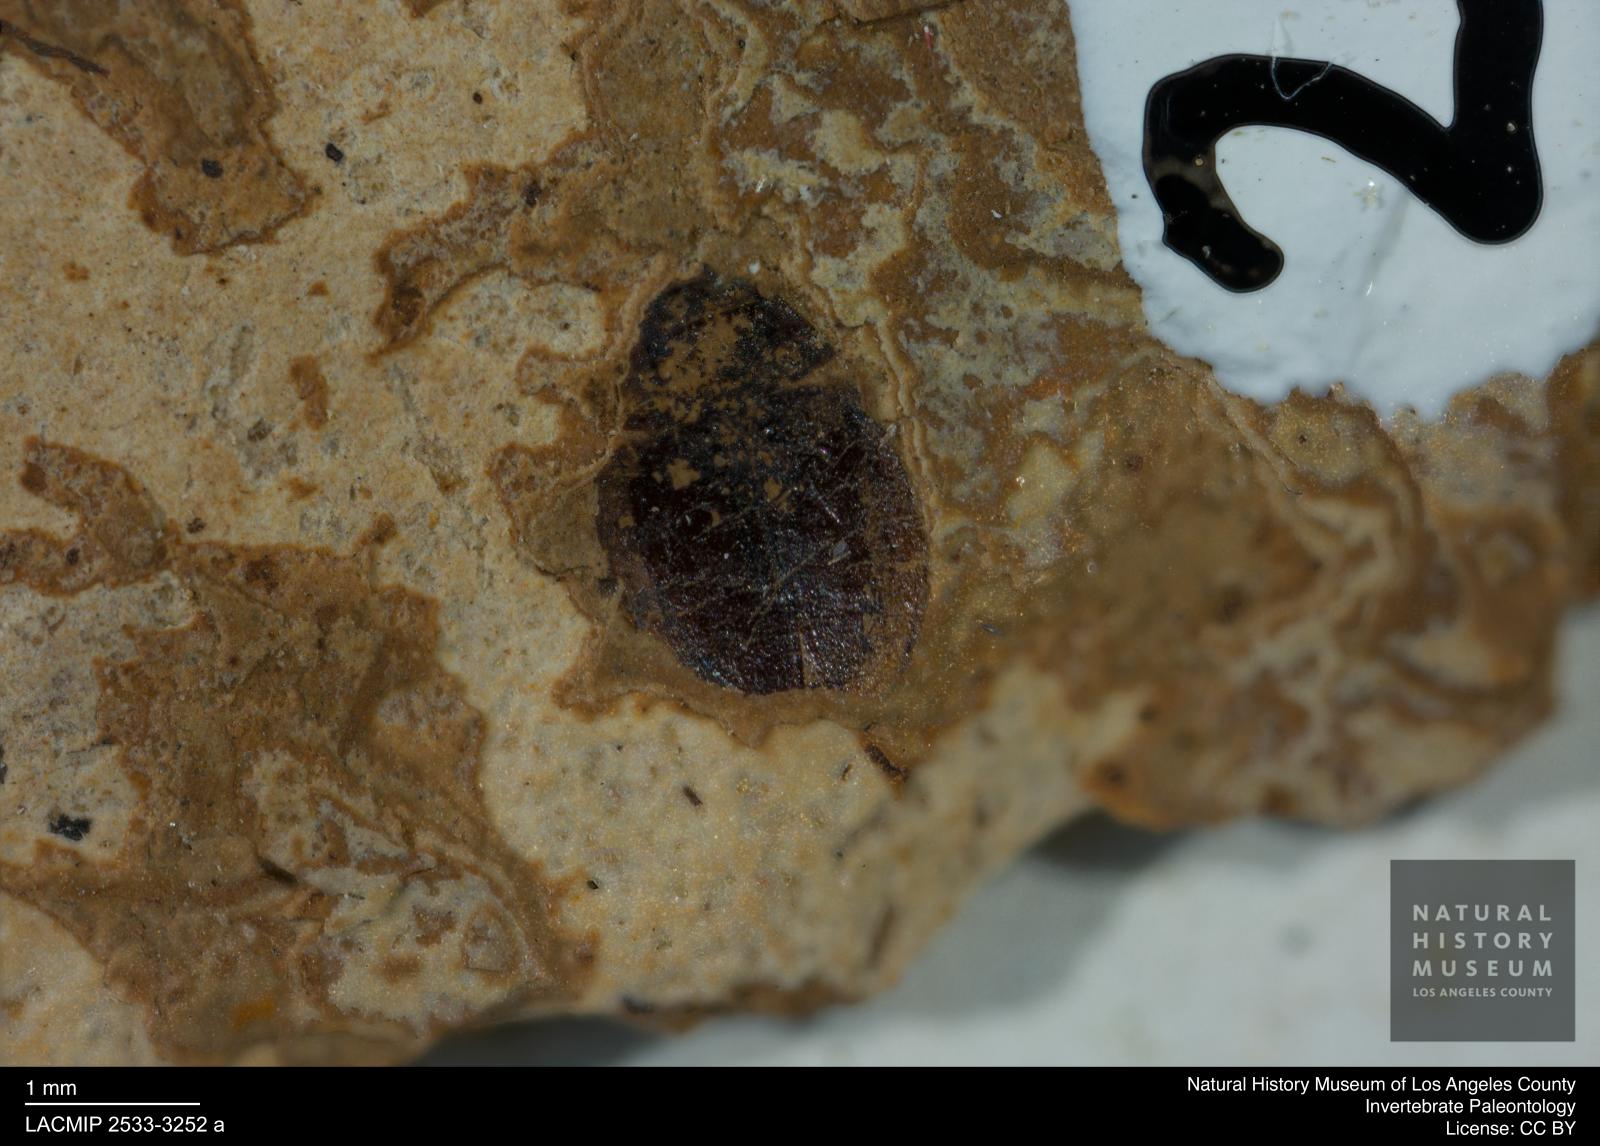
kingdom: Animalia
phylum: Arthropoda
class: Insecta
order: Coleoptera
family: Hydrophilidae
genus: Paracymus
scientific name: Paracymus excitatus
